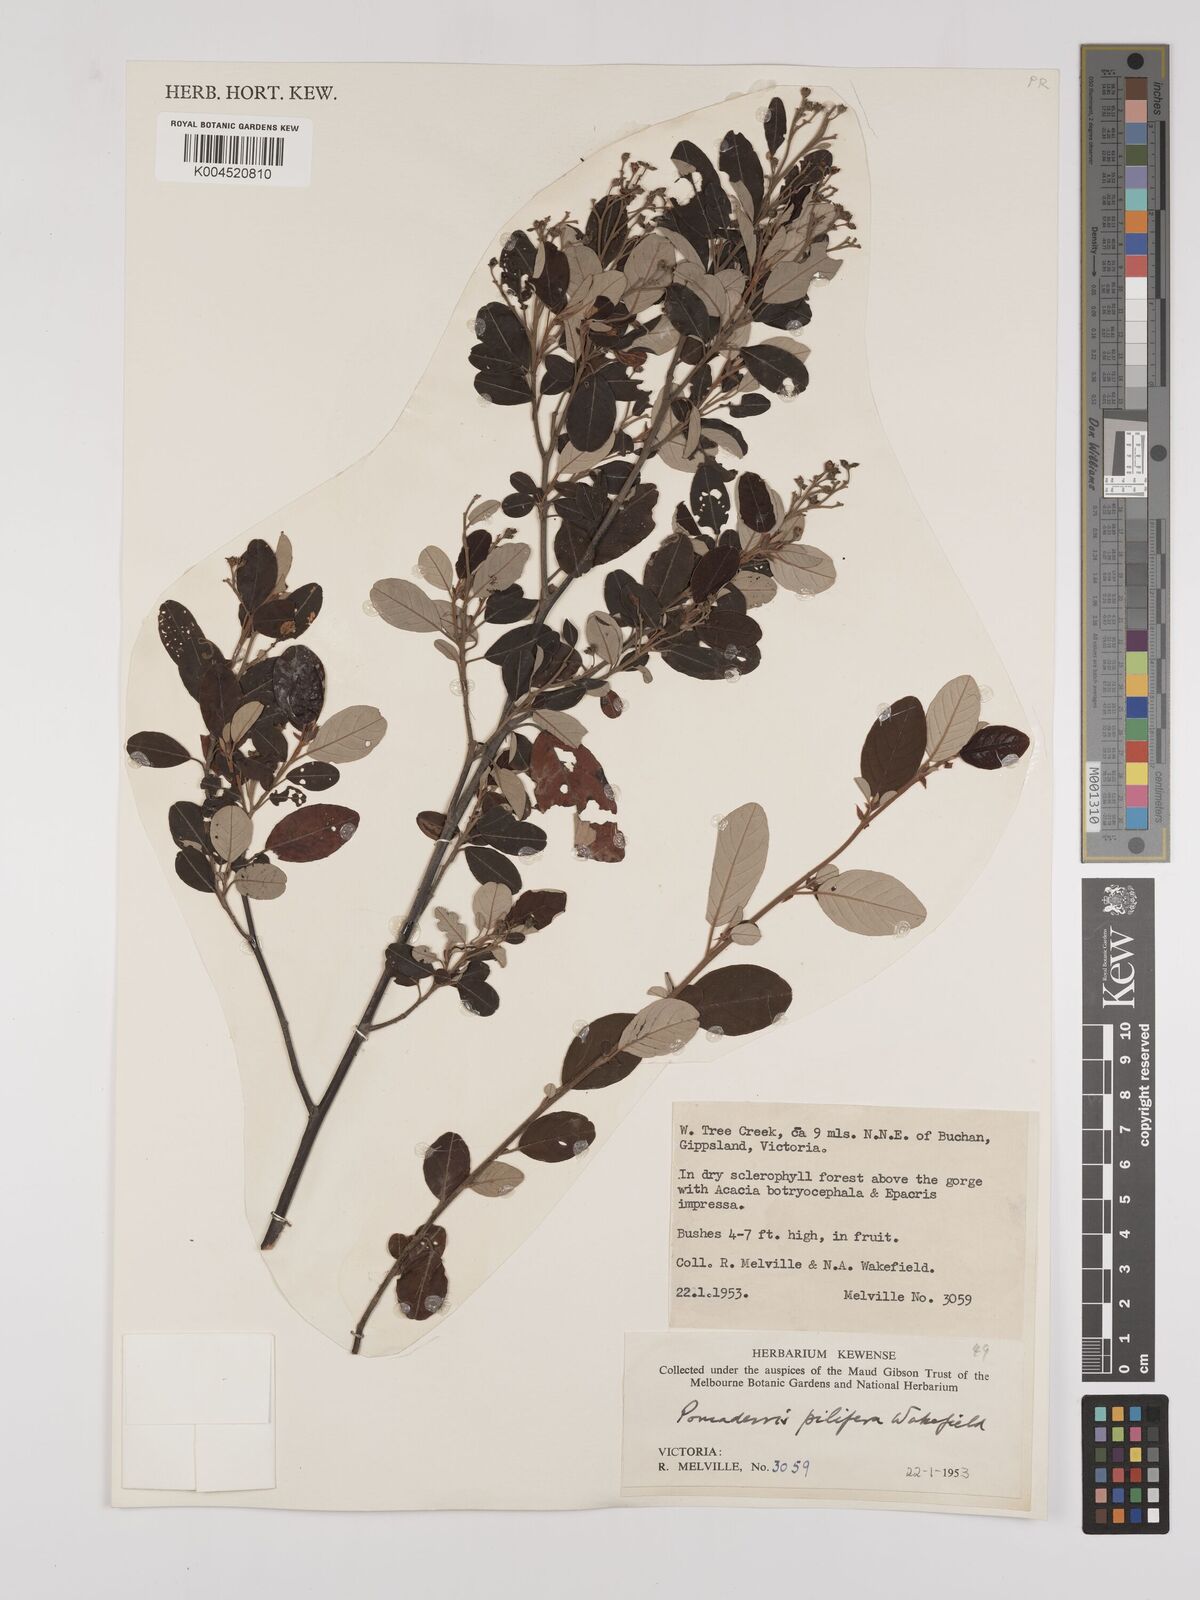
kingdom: Plantae
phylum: Tracheophyta
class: Magnoliopsida
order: Rosales
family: Rhamnaceae
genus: Pomaderris
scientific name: Pomaderris pilifera
